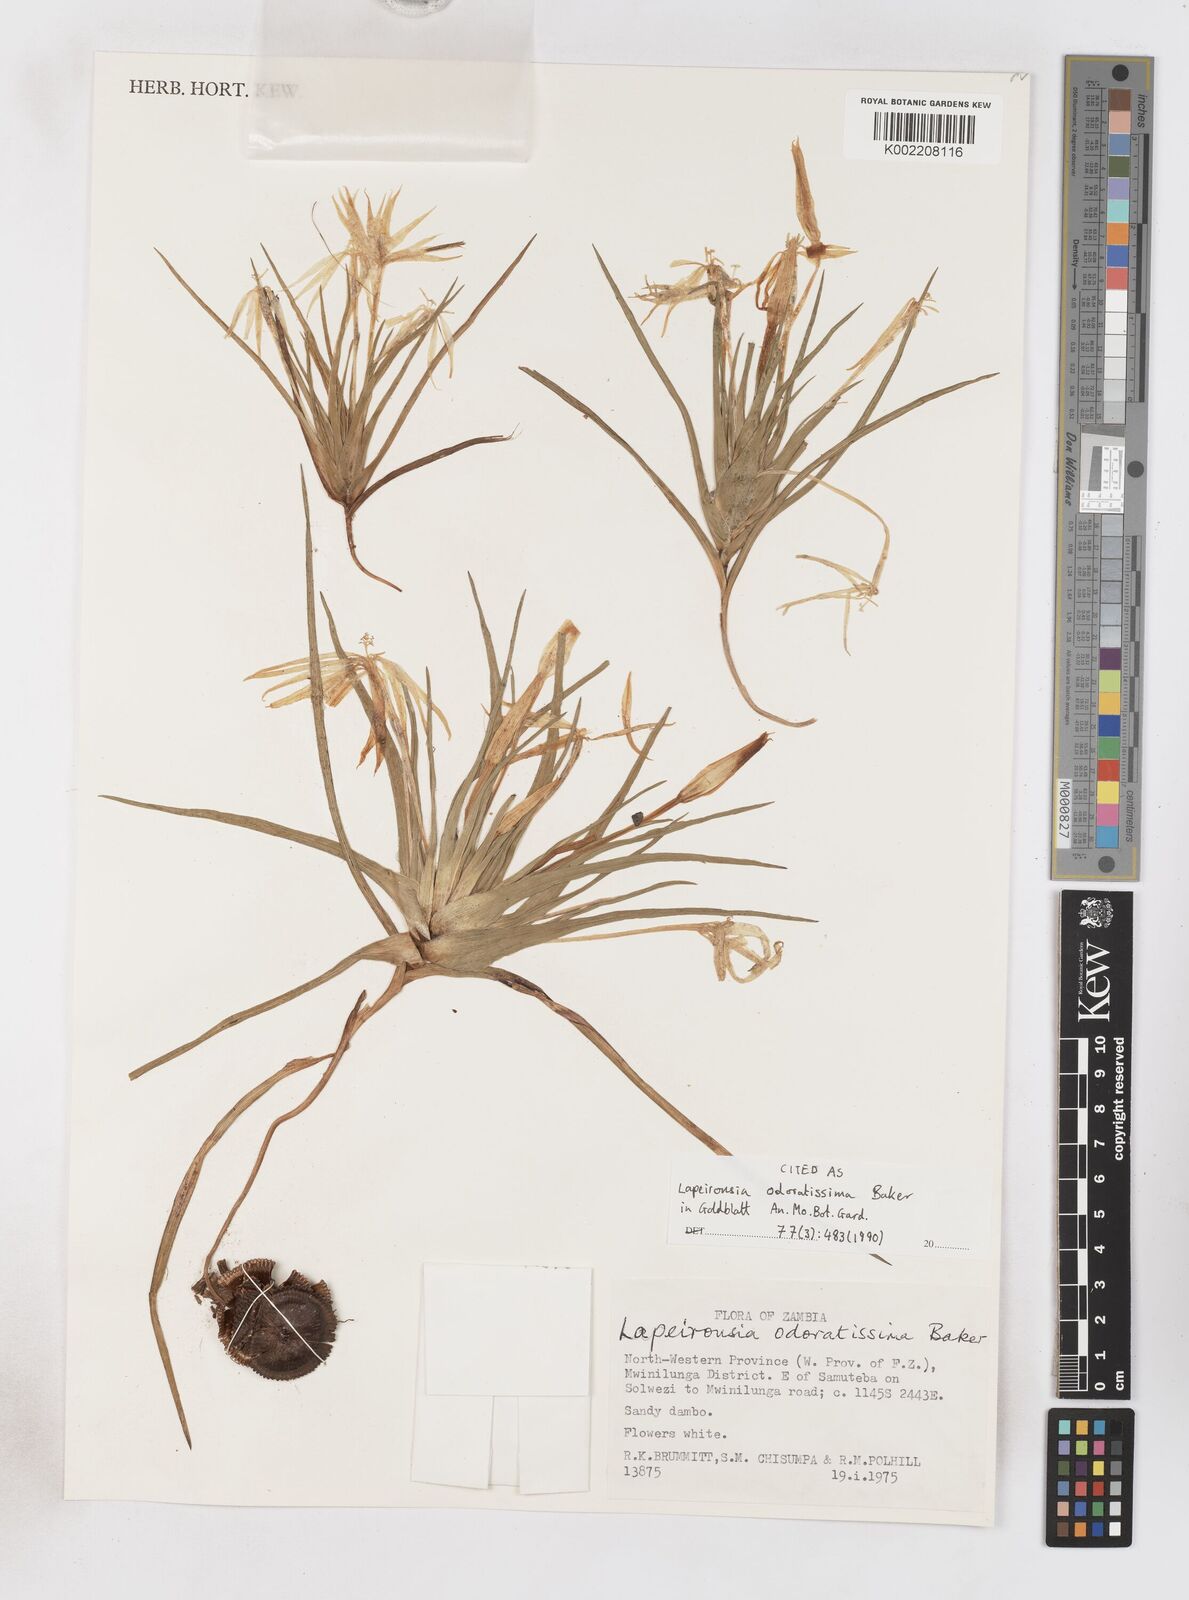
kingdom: Plantae
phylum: Tracheophyta
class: Liliopsida
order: Asparagales
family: Iridaceae
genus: Lapeirousia
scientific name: Lapeirousia odoratissima
